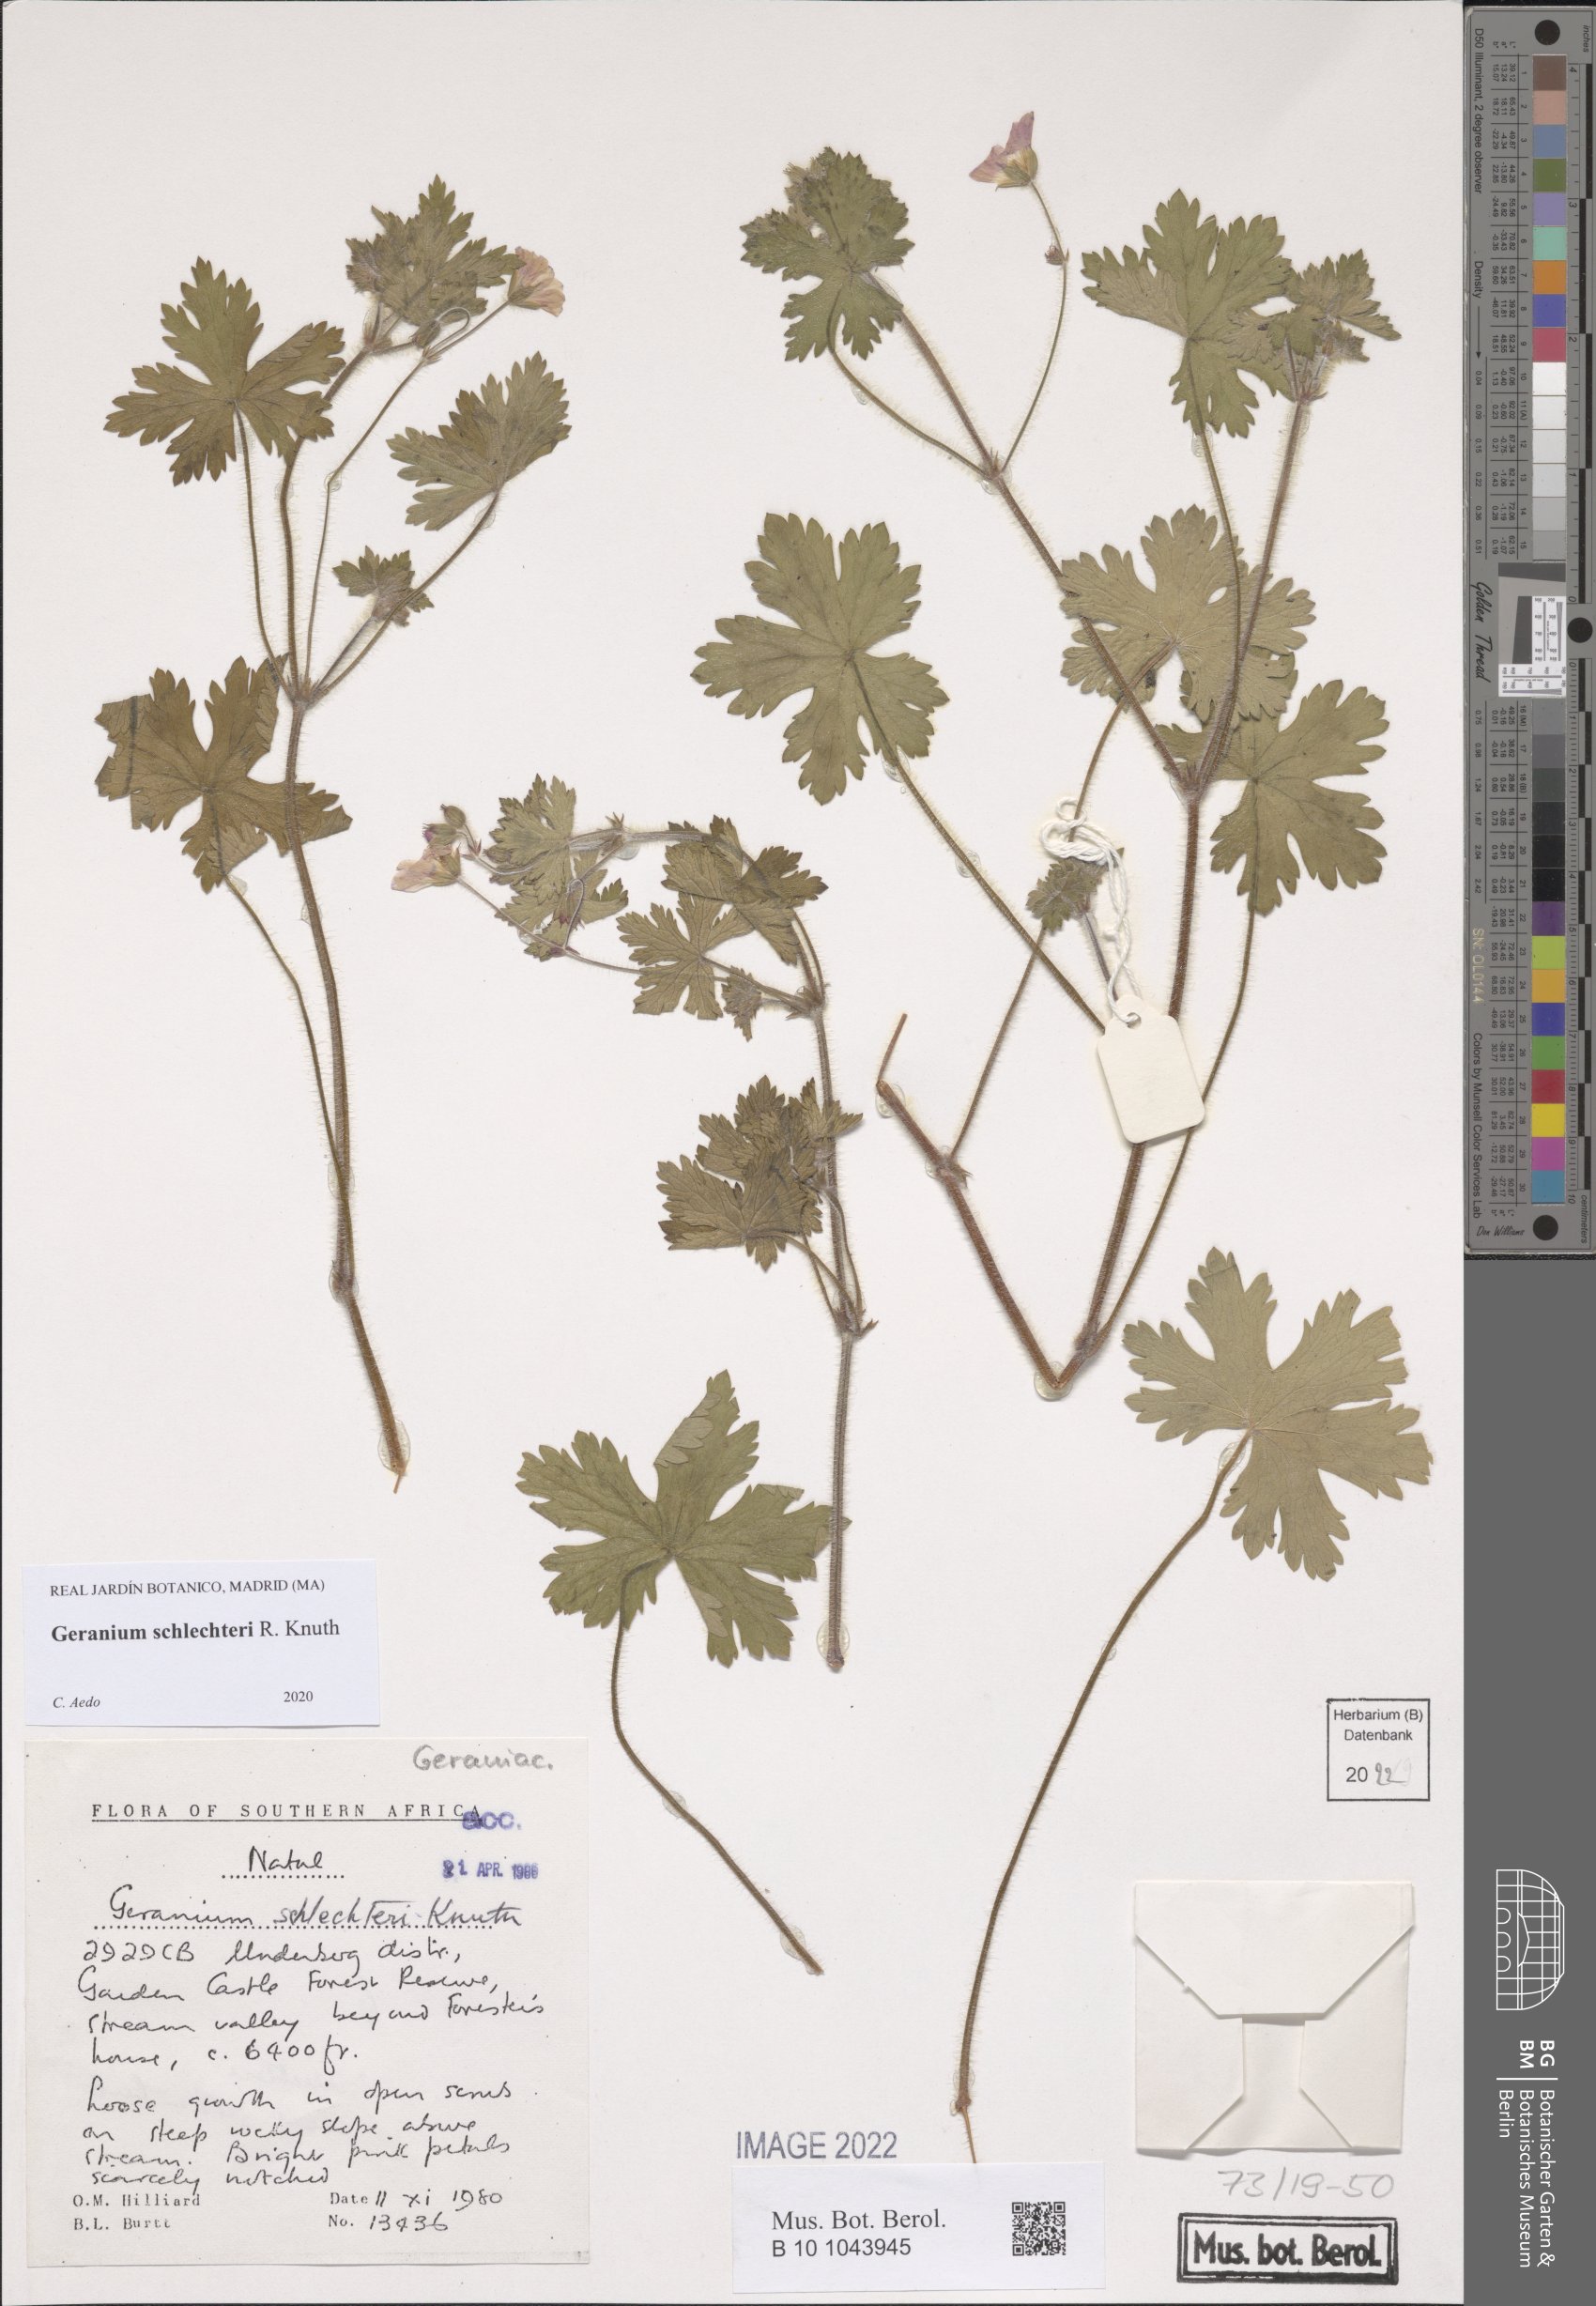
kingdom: Plantae
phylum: Tracheophyta
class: Magnoliopsida
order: Geraniales
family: Geraniaceae
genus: Geranium
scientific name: Geranium schlechteri
